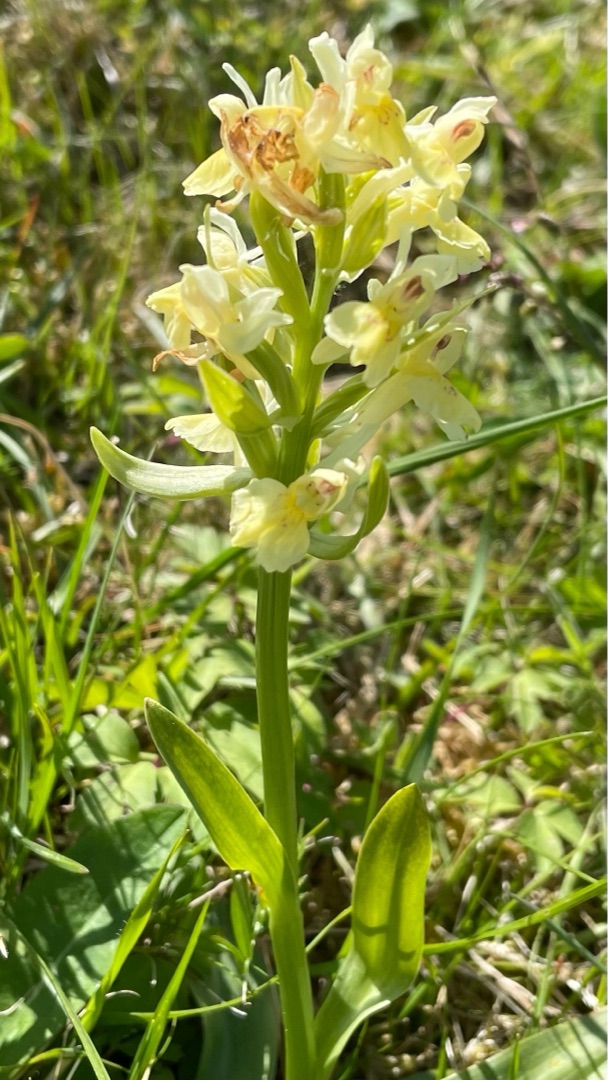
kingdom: Plantae
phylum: Tracheophyta
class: Liliopsida
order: Asparagales
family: Orchidaceae
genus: Dactylorhiza
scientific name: Dactylorhiza sambucina
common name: Hylde-gøgeurt
